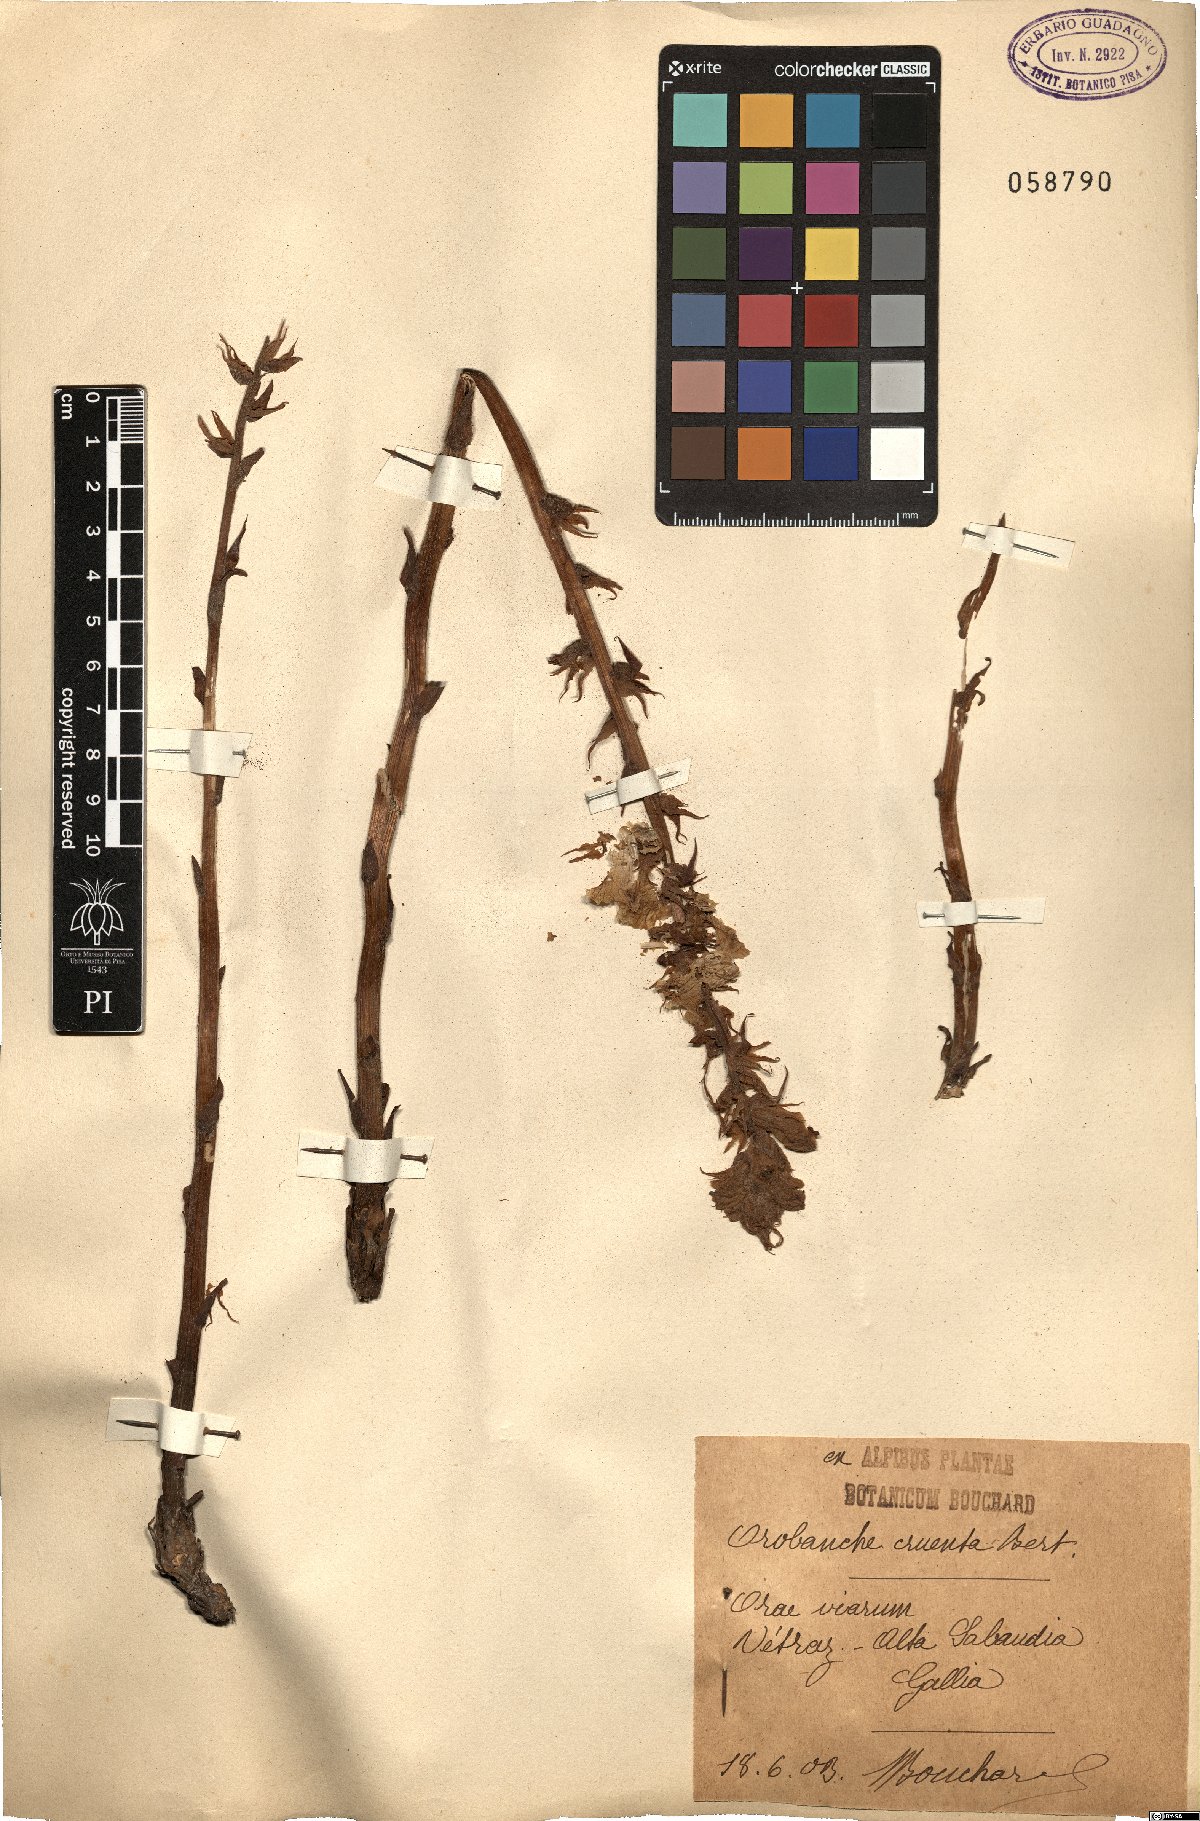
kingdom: Plantae
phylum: Tracheophyta
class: Magnoliopsida
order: Lamiales
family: Orobanchaceae
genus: Orobanche
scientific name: Orobanche crenata
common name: Bean broomrape
